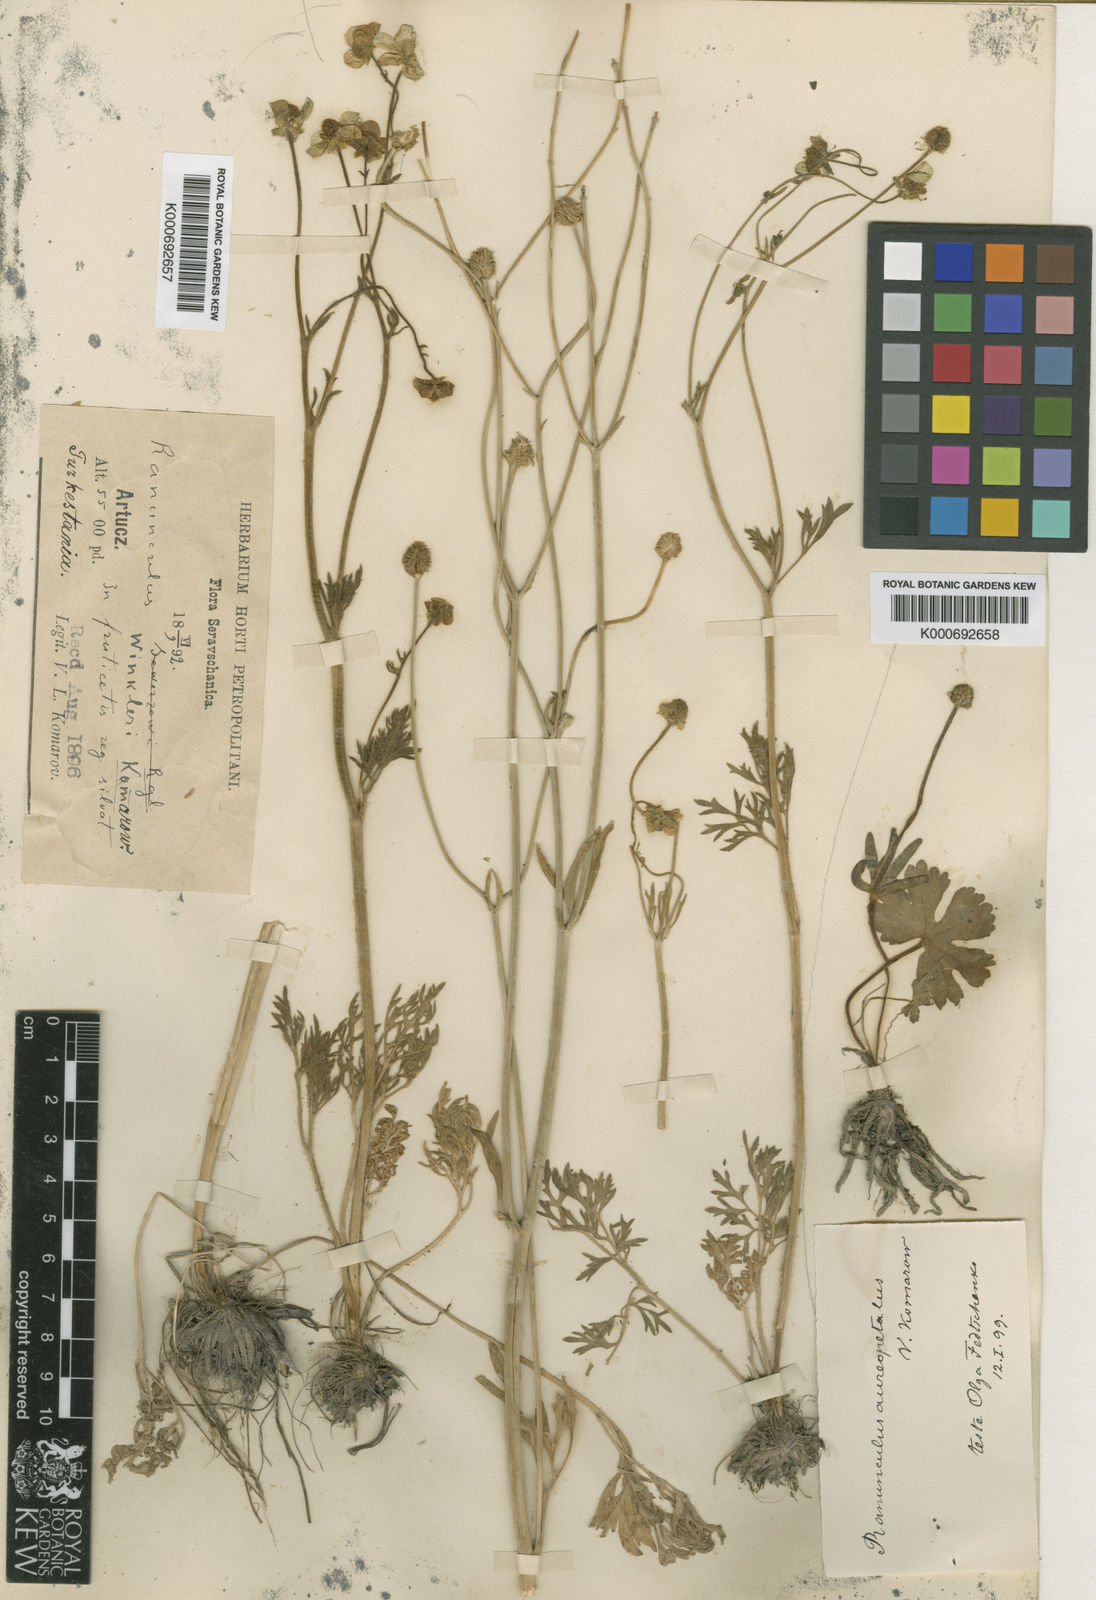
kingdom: Plantae
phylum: Tracheophyta
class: Magnoliopsida
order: Ranunculales
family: Ranunculaceae
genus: Ranunculus
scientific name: Ranunculus
